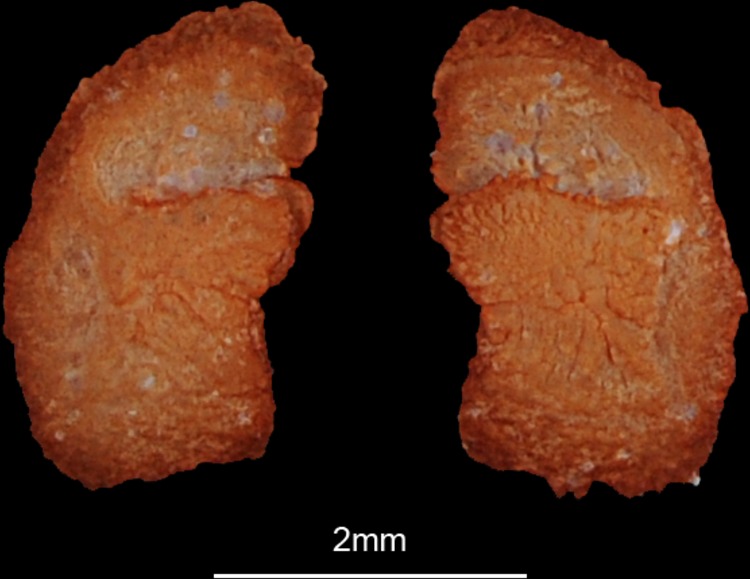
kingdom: Animalia
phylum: Chordata
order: Siluriformes
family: Siluridae
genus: Silurus
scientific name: Silurus triostegus
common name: Mesopotamian catfish
